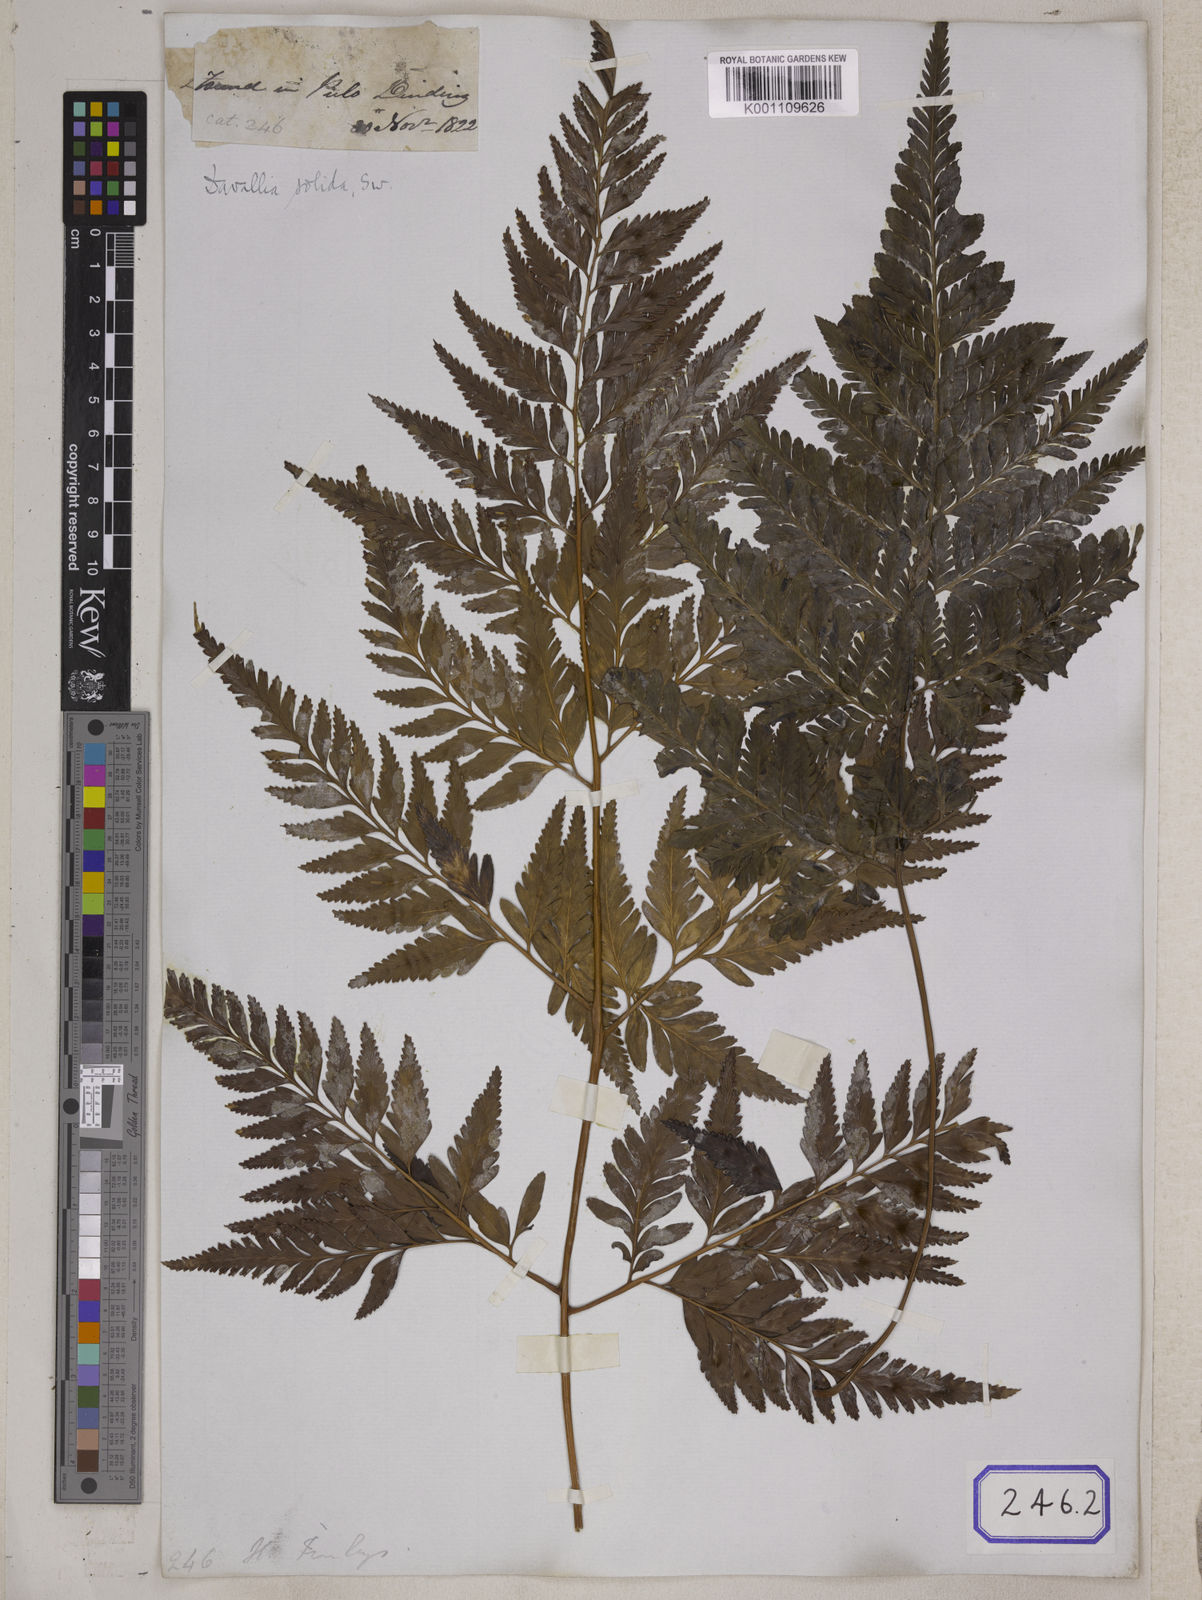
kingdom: Plantae
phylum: Tracheophyta
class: Polypodiopsida
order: Polypodiales
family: Davalliaceae
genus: Davallia
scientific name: Davallia solida
